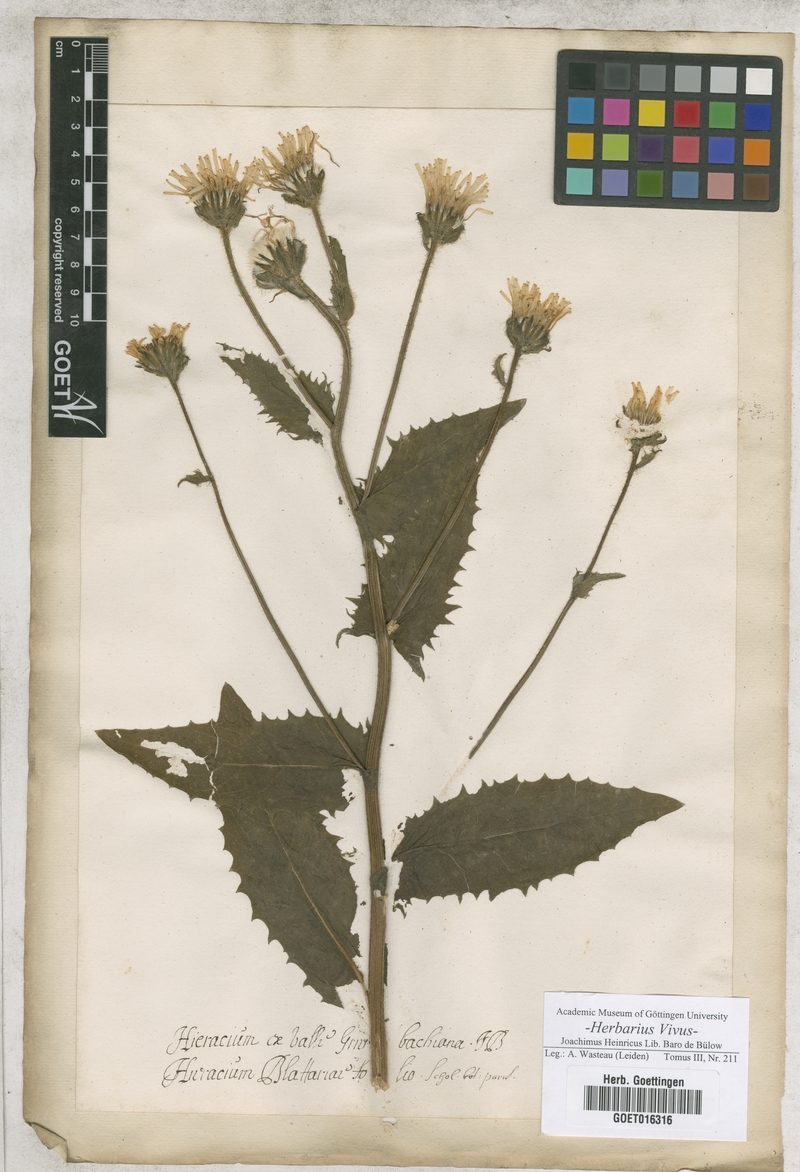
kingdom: Plantae
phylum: Tracheophyta
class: Magnoliopsida
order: Asterales
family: Asteraceae
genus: Hieracium
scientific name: Hieracium
